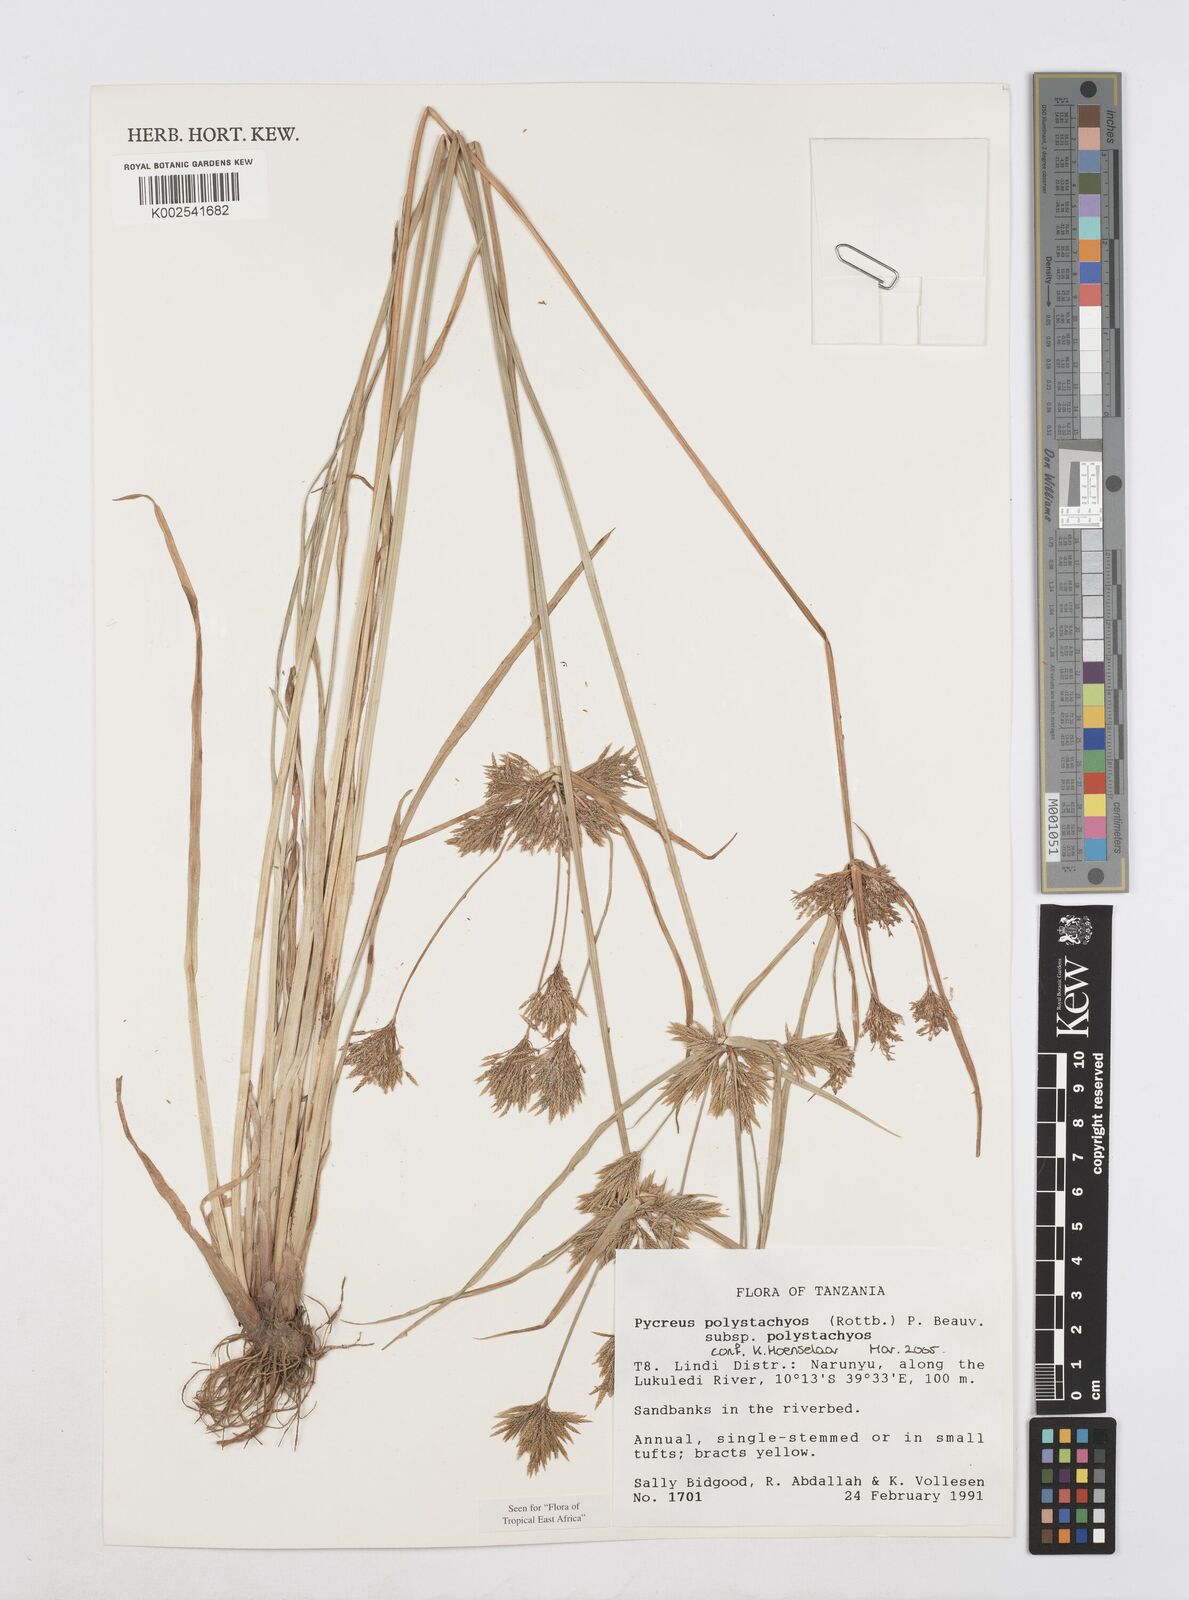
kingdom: Plantae
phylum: Tracheophyta
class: Liliopsida
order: Poales
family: Cyperaceae
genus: Cyperus
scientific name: Cyperus polystachyos
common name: Bunchy flat sedge
